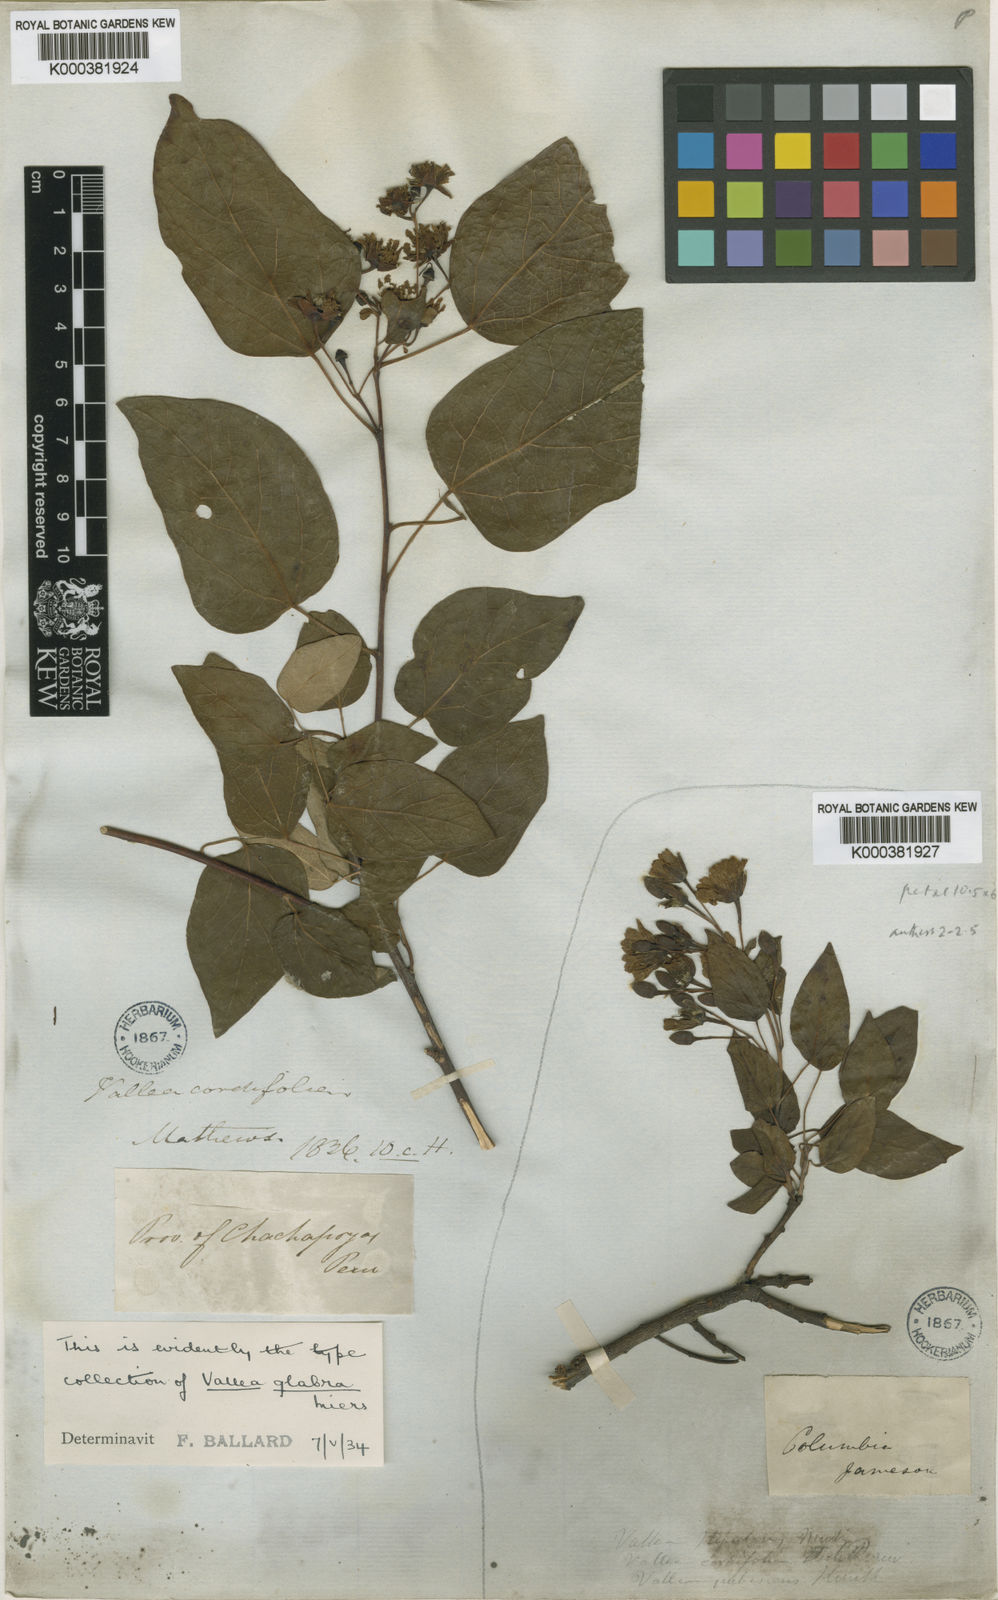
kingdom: Plantae
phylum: Tracheophyta
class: Magnoliopsida
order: Oxalidales
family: Elaeocarpaceae
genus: Vallea
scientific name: Vallea stipularis
